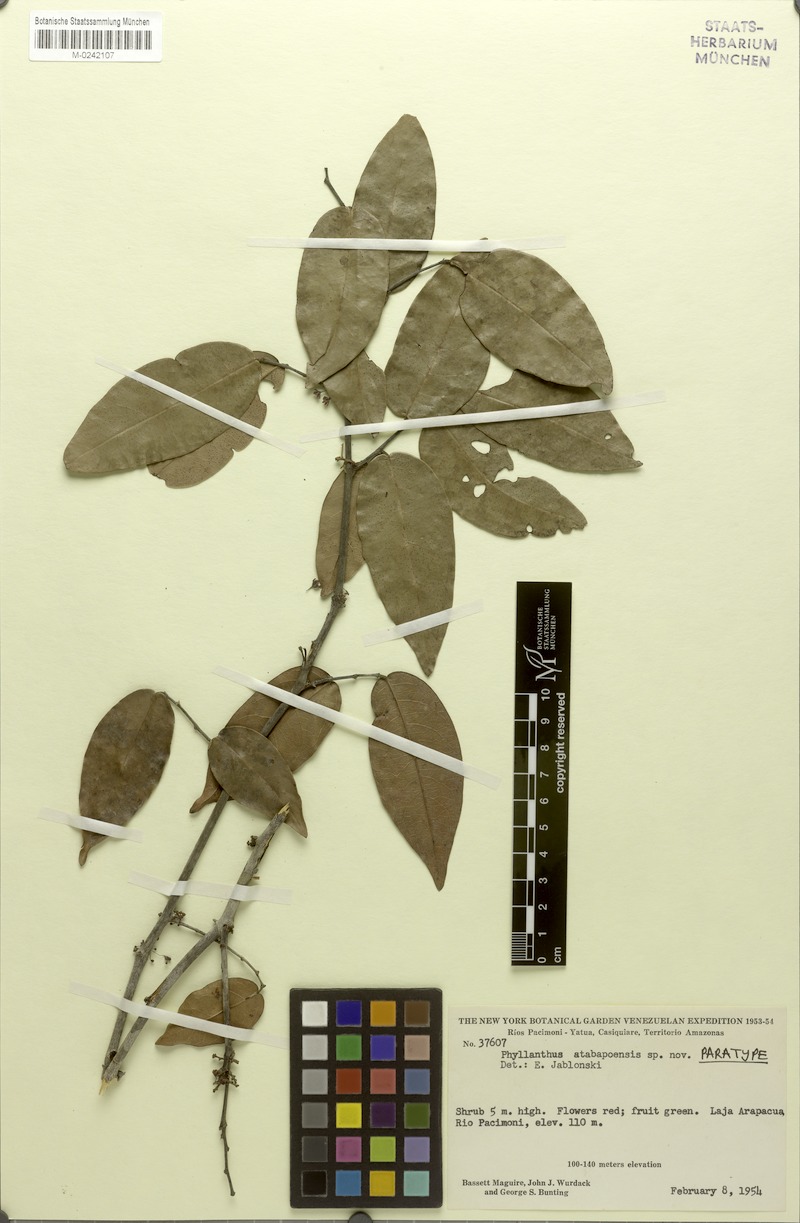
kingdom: Plantae
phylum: Tracheophyta
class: Magnoliopsida
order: Malpighiales
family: Phyllanthaceae
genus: Phyllanthus
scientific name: Phyllanthus atabapoensis
